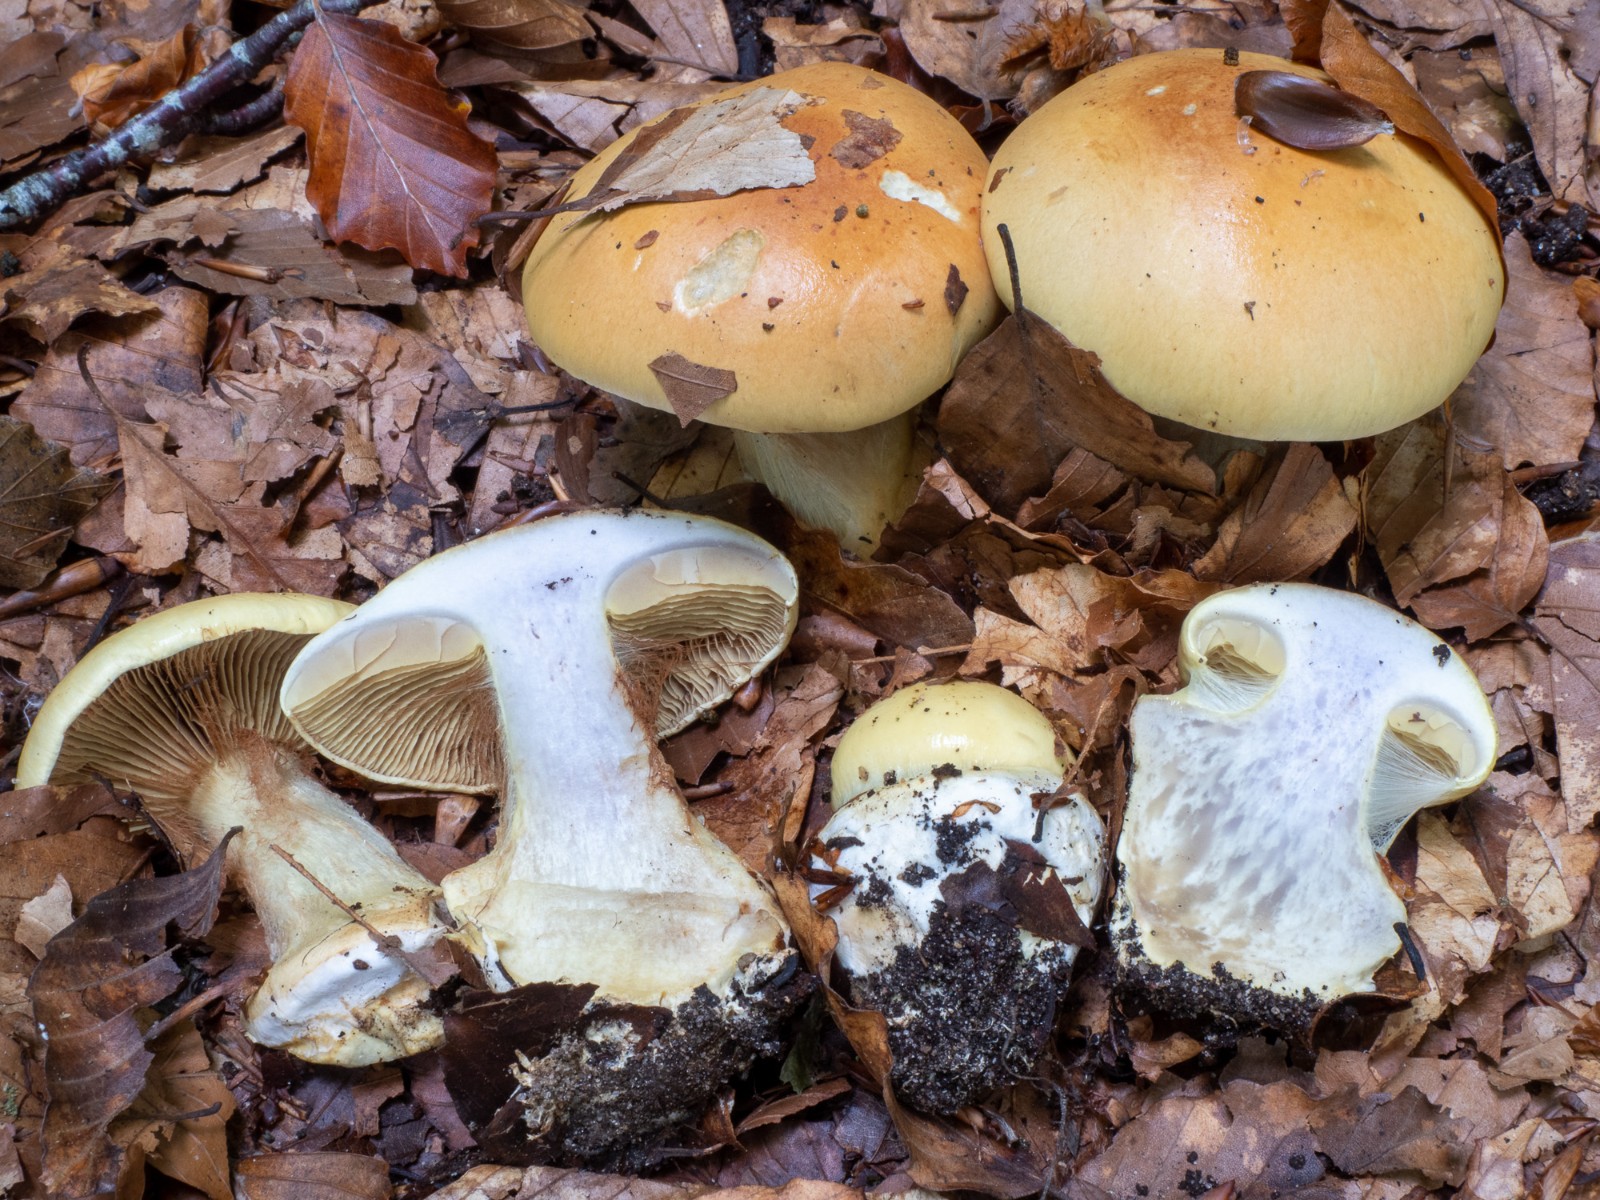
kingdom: Fungi
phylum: Basidiomycota
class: Agaricomycetes
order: Agaricales
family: Cortinariaceae
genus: Calonarius
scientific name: Calonarius elegantissimus
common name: orangegylden slørhat
